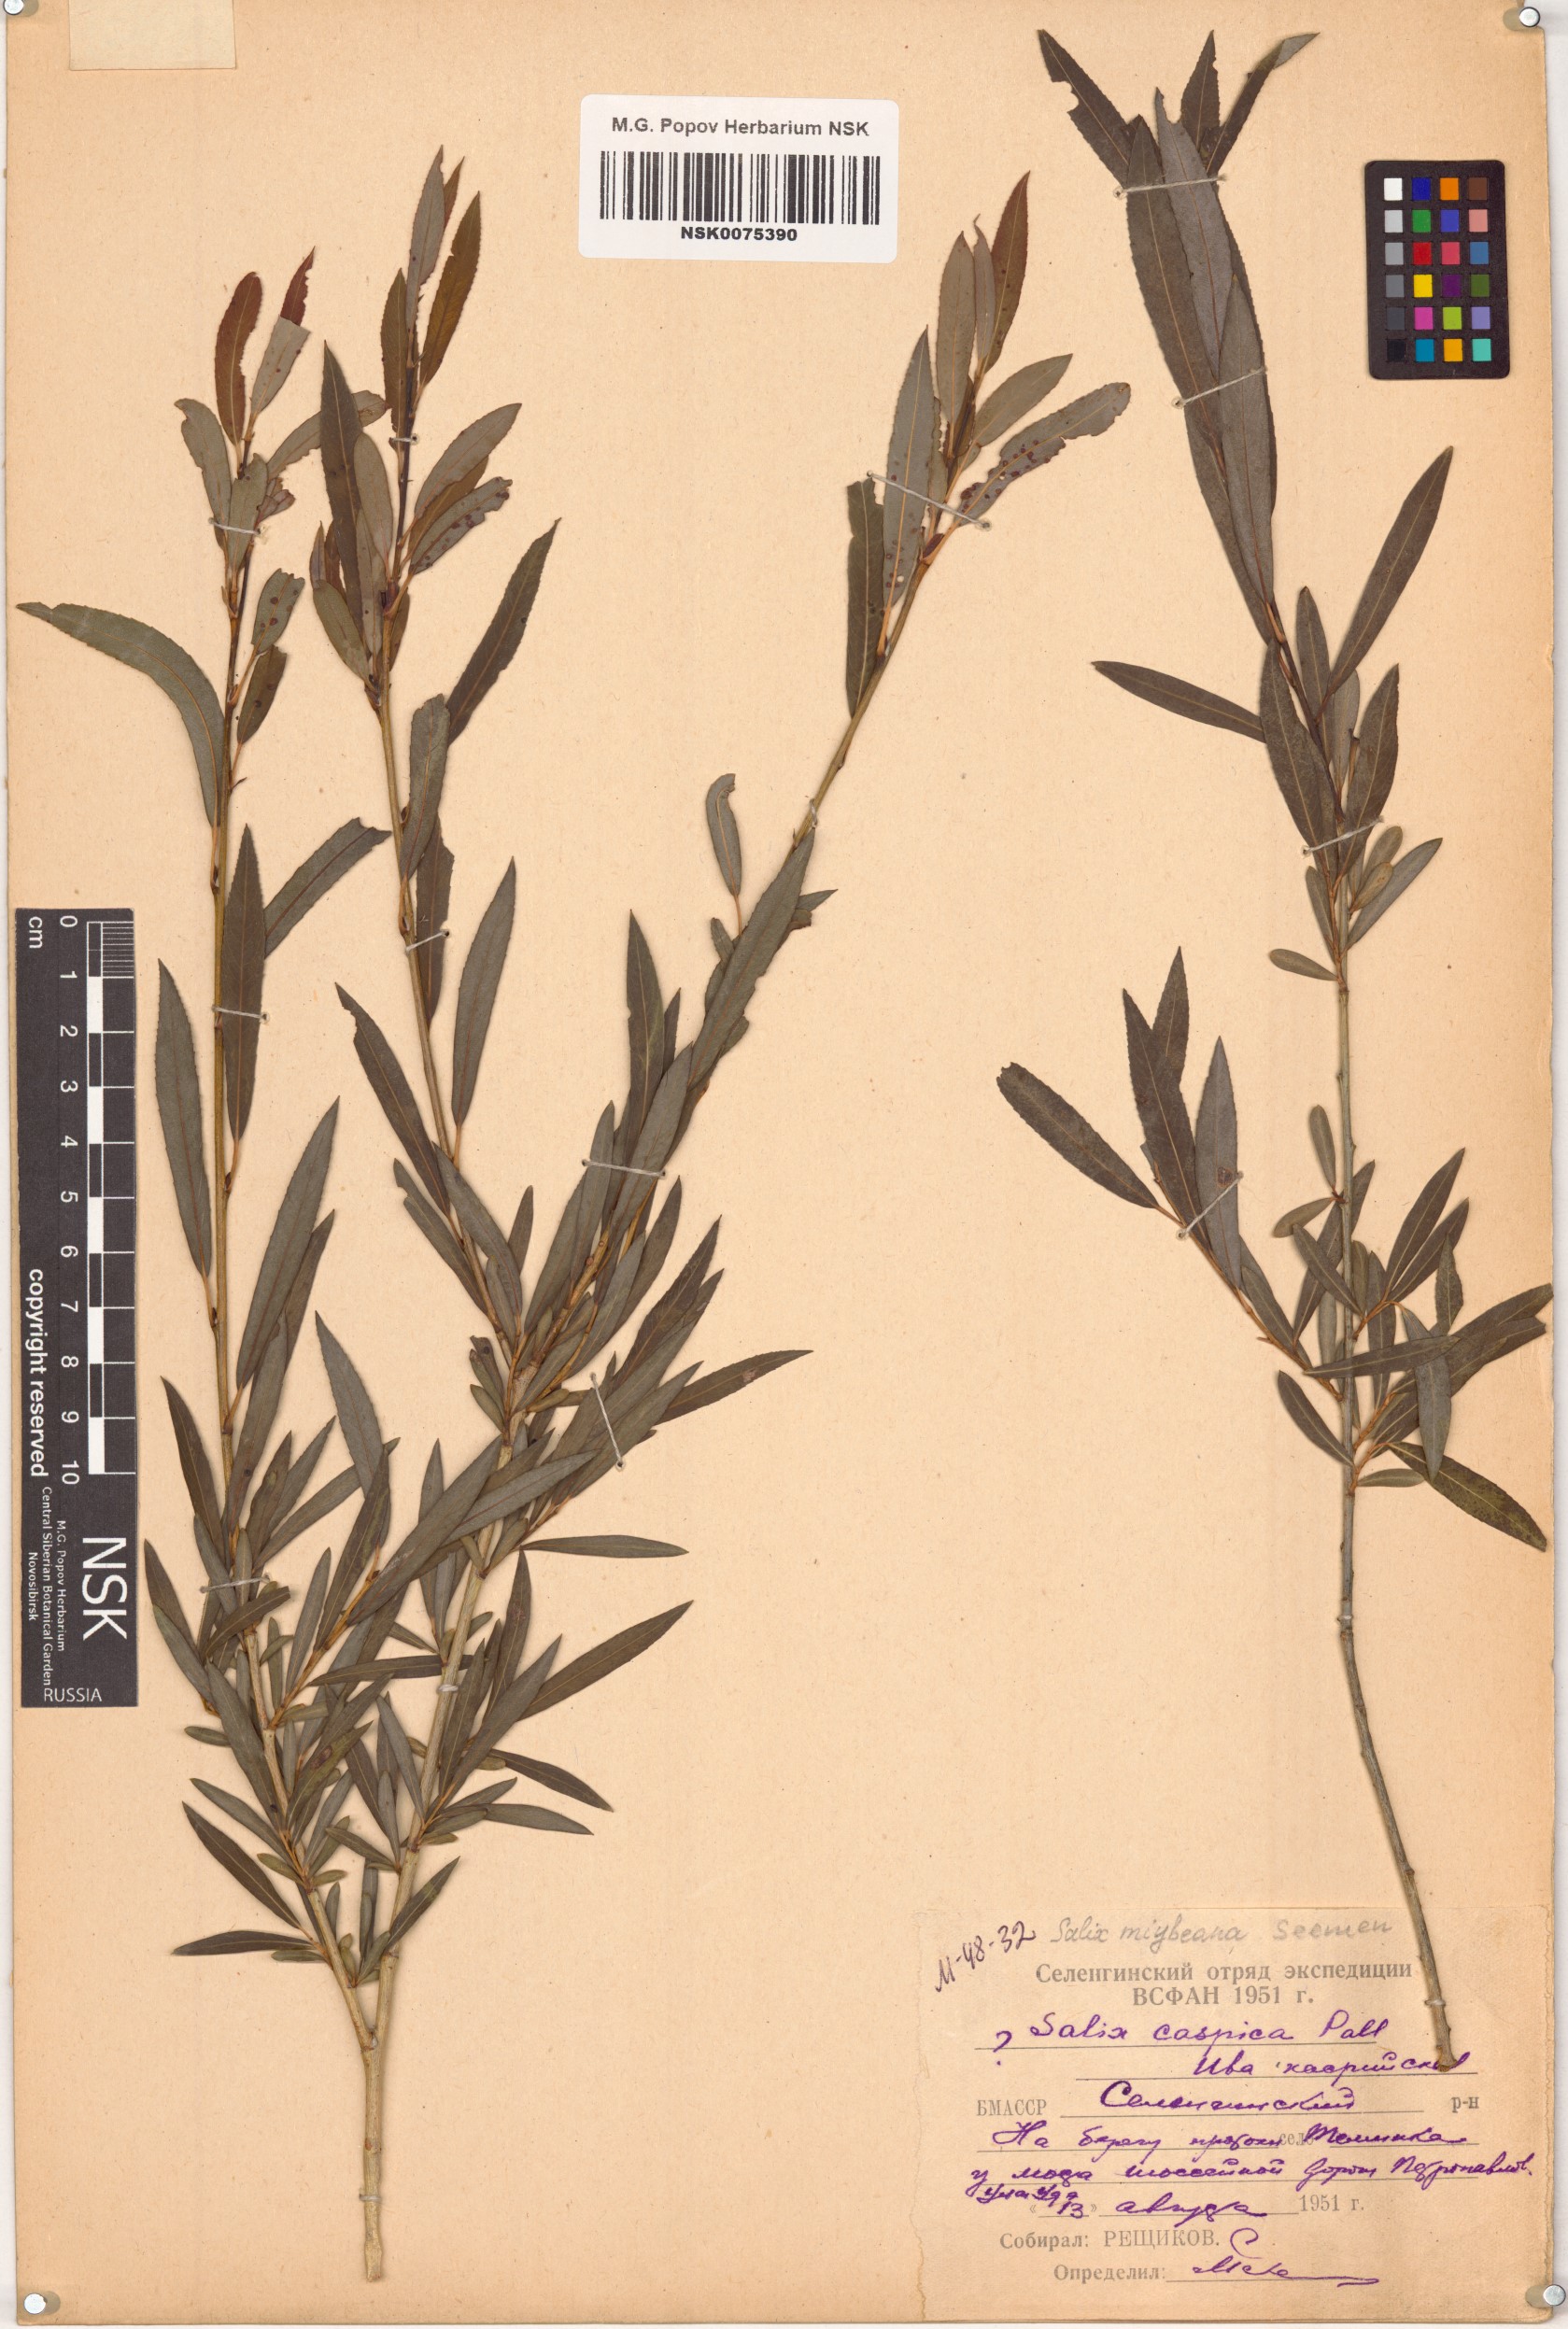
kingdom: Plantae
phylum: Tracheophyta
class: Magnoliopsida
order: Malpighiales
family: Salicaceae
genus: Salix
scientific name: Salix miyabeana
